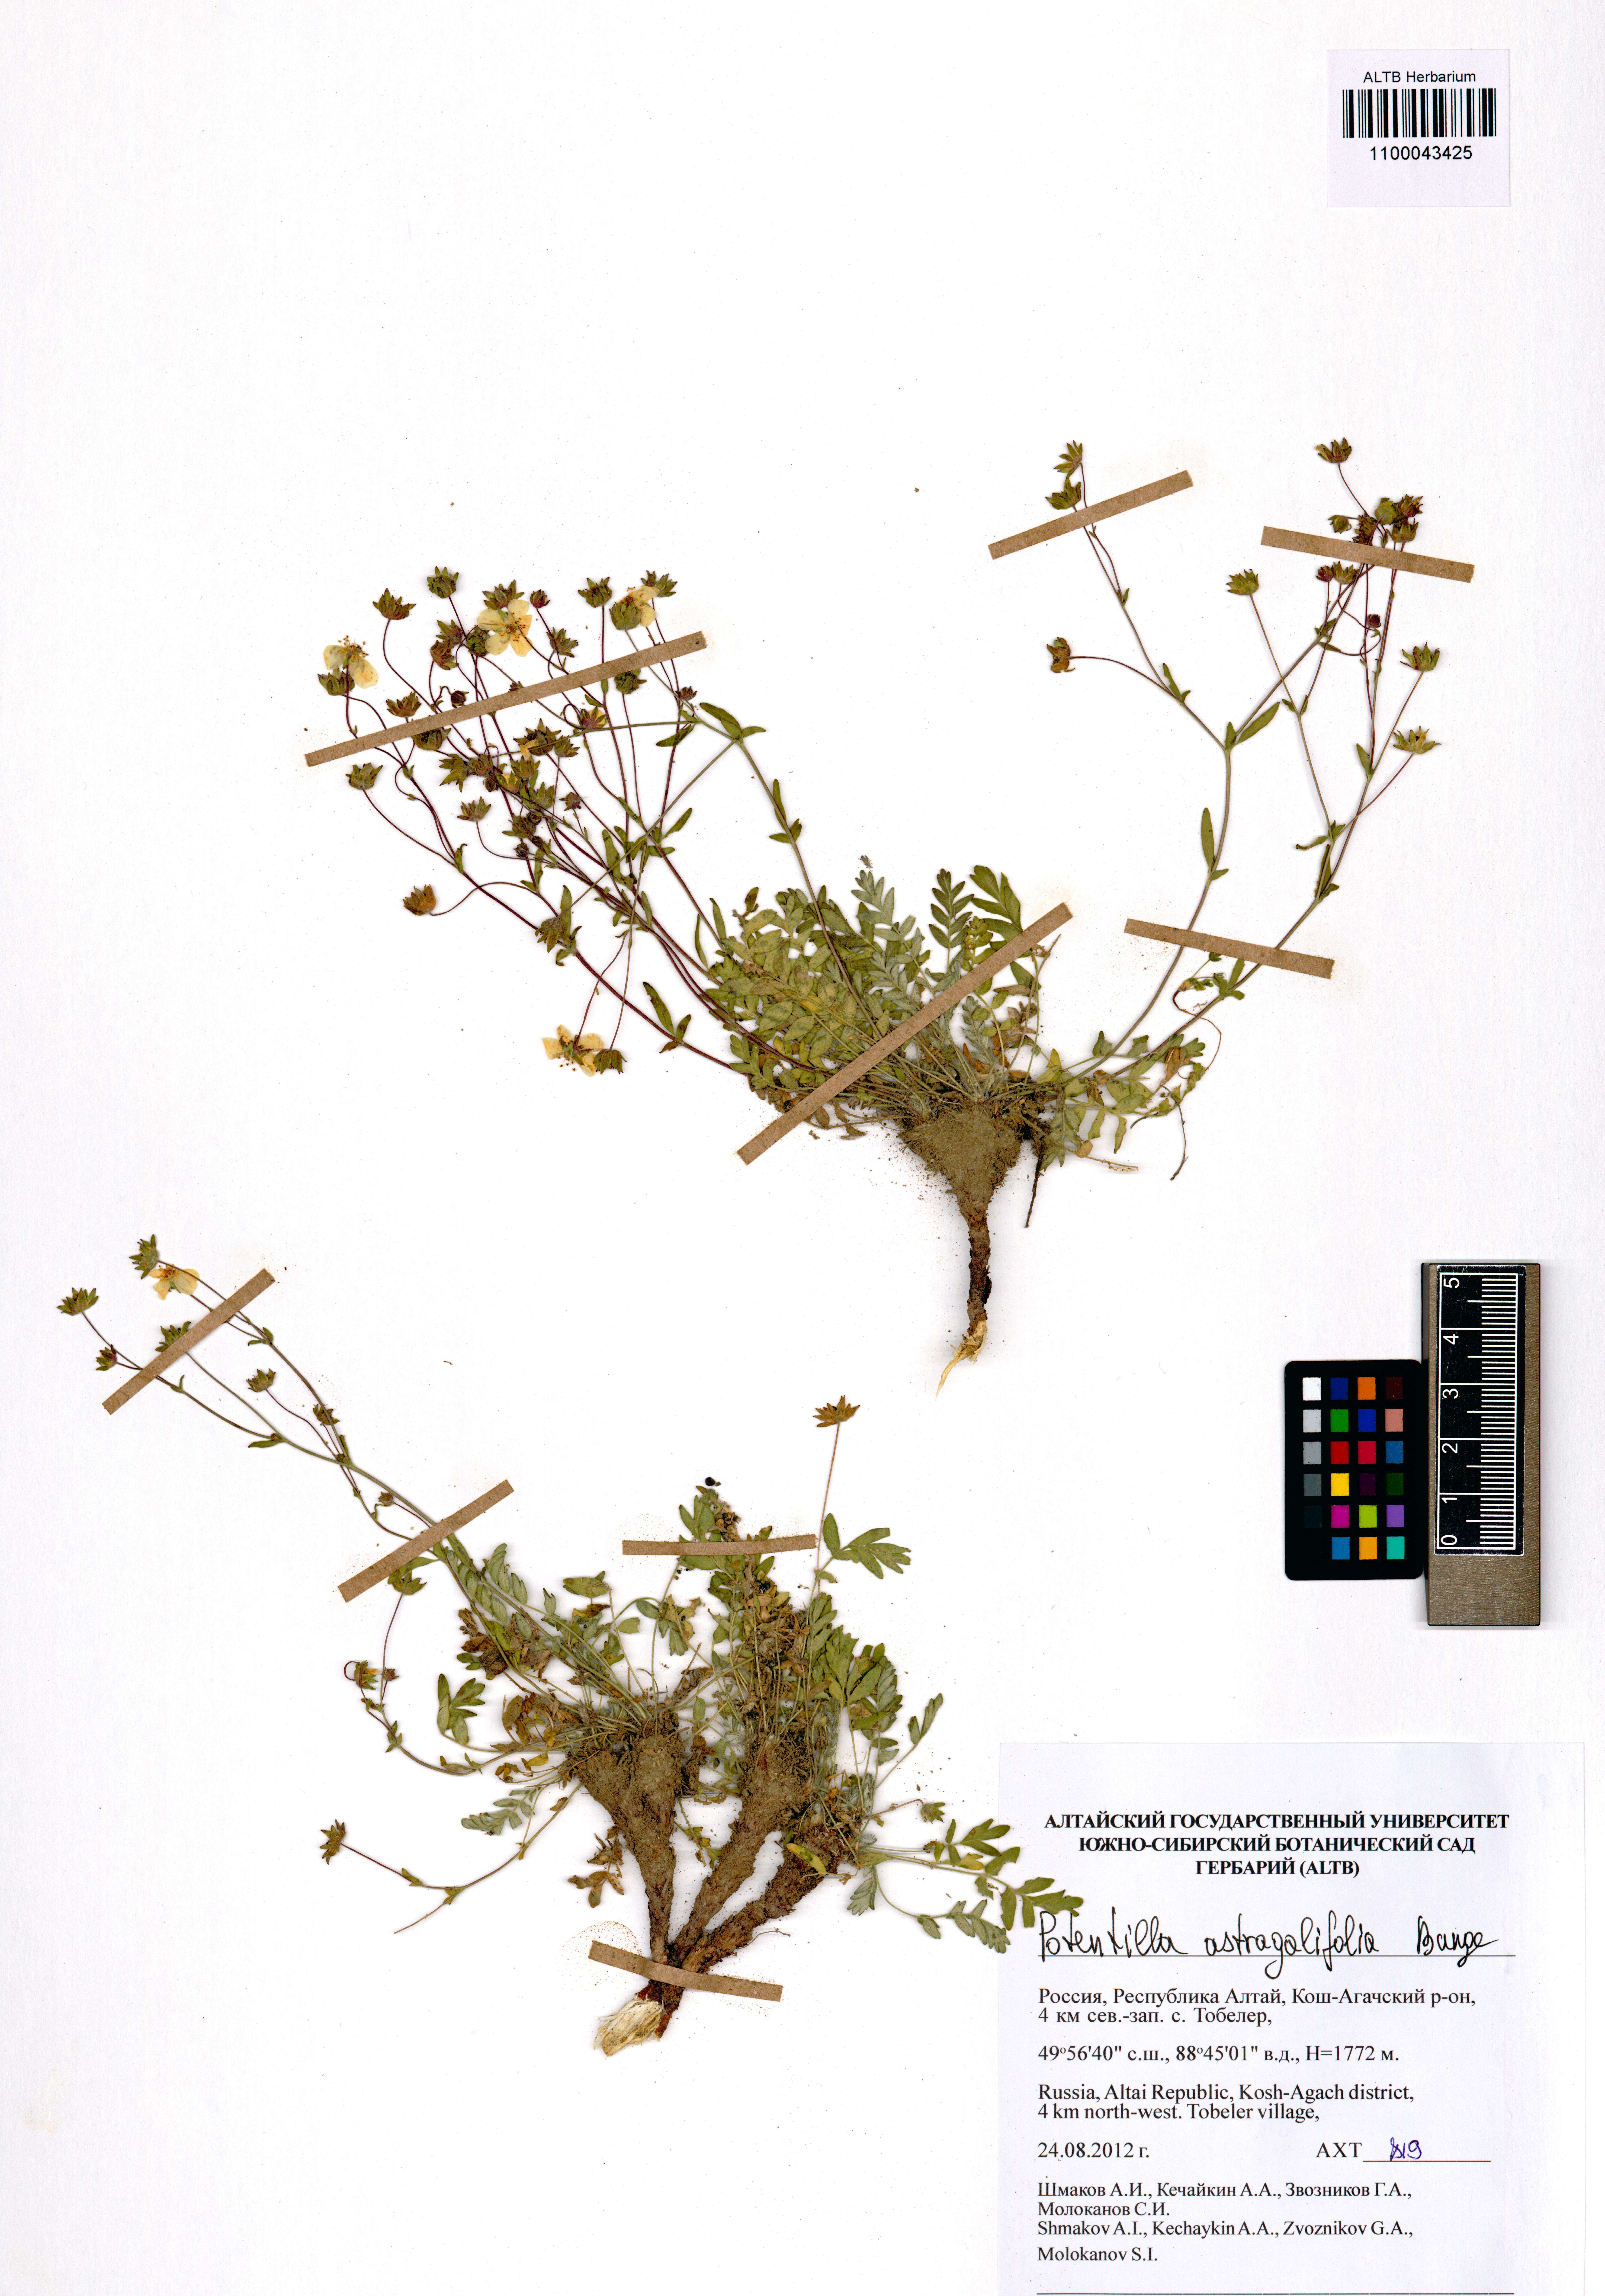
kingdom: Plantae
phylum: Tracheophyta
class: Magnoliopsida
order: Rosales
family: Rosaceae
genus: Potentilla
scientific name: Potentilla astragalifolia
